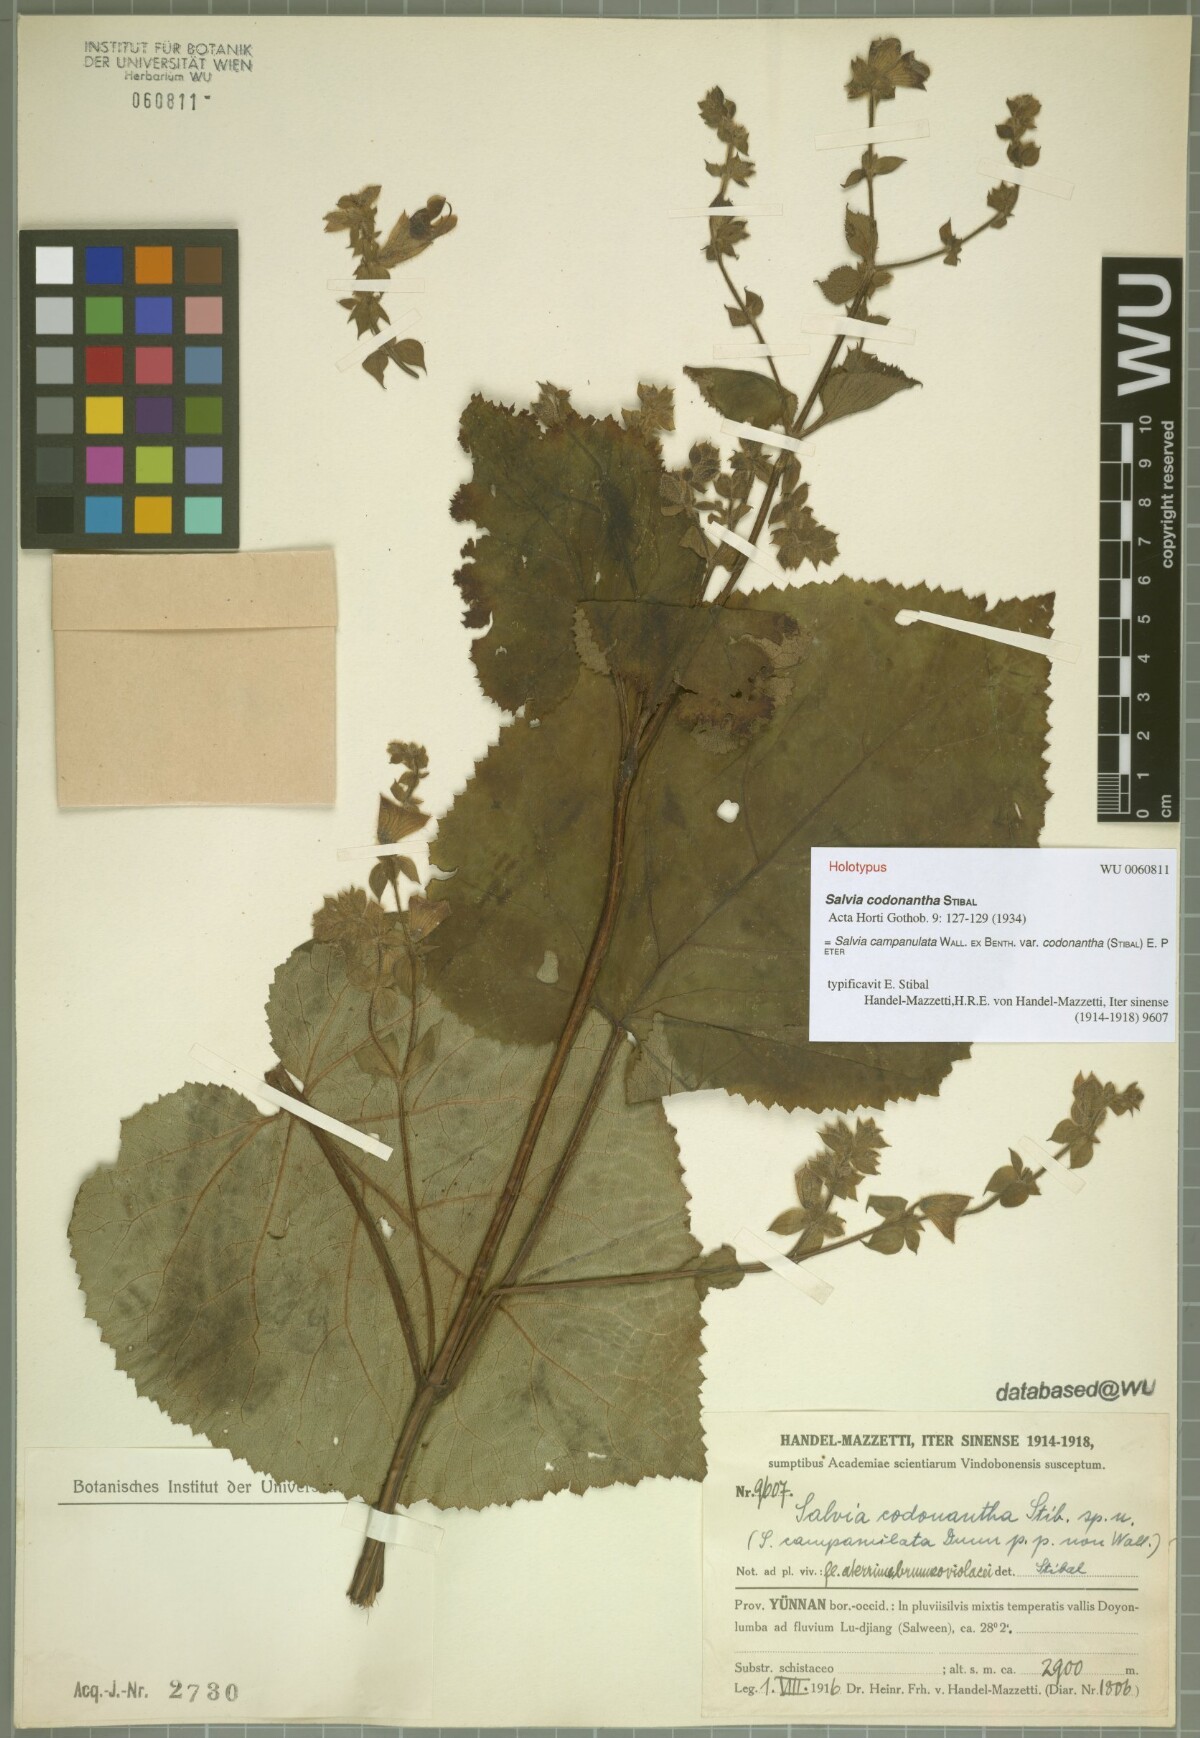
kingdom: Plantae
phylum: Tracheophyta
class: Magnoliopsida
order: Lamiales
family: Lamiaceae
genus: Salvia
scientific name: Salvia campanulata
